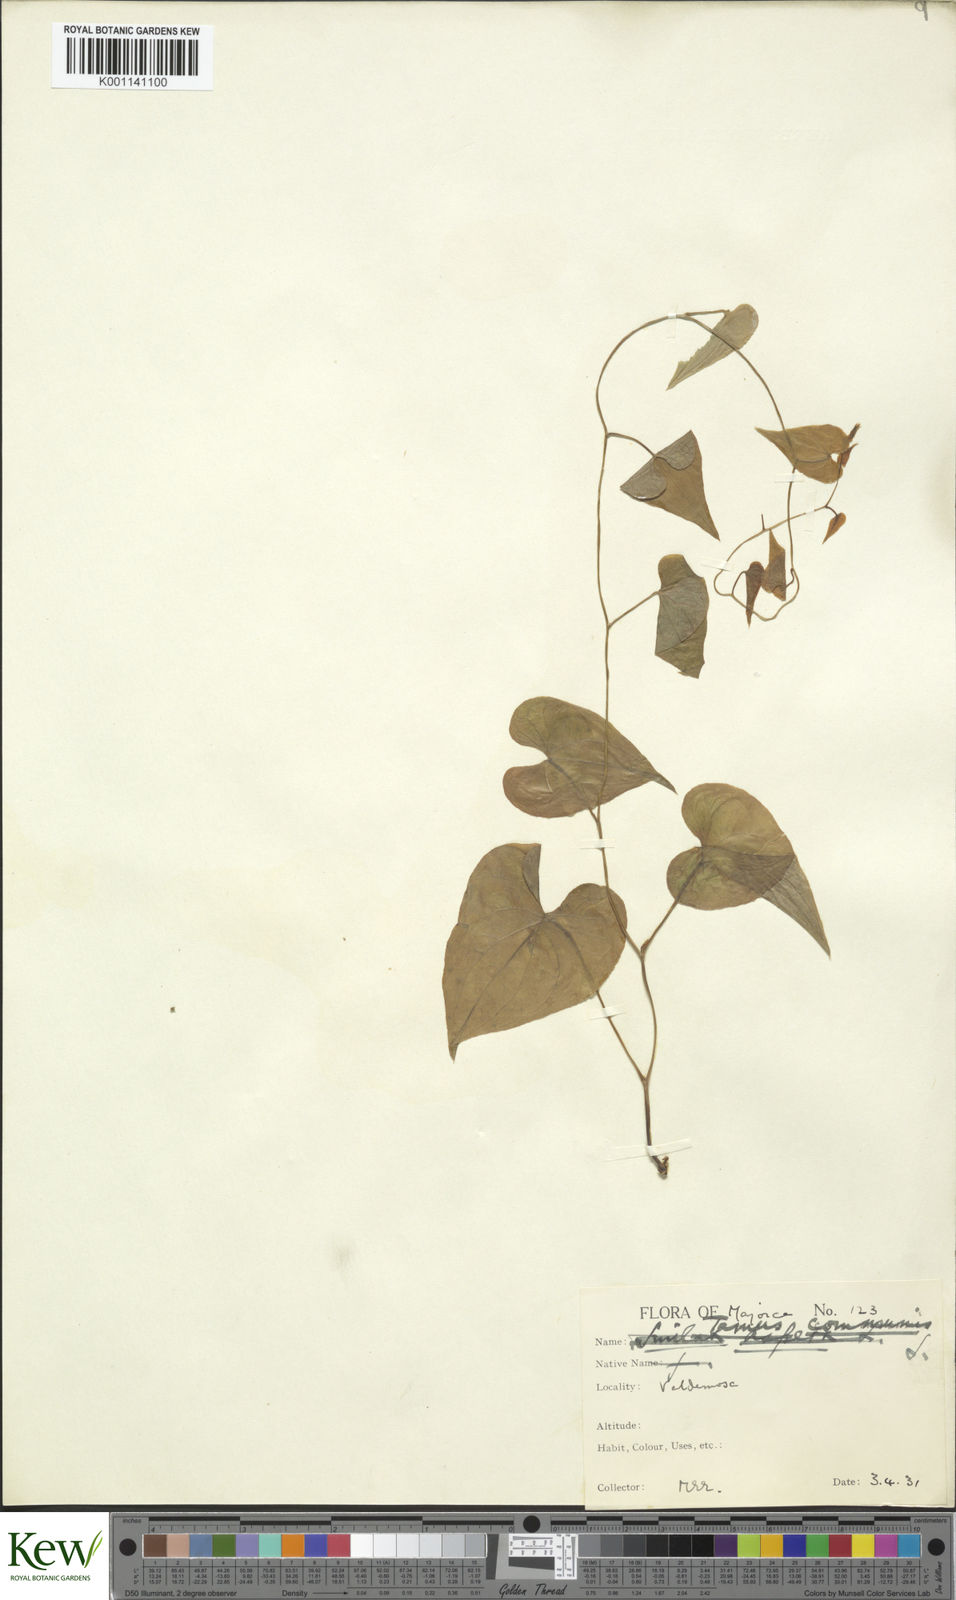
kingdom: Plantae
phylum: Tracheophyta
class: Liliopsida
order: Dioscoreales
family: Dioscoreaceae
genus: Dioscorea
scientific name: Dioscorea communis
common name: Black-bindweed
